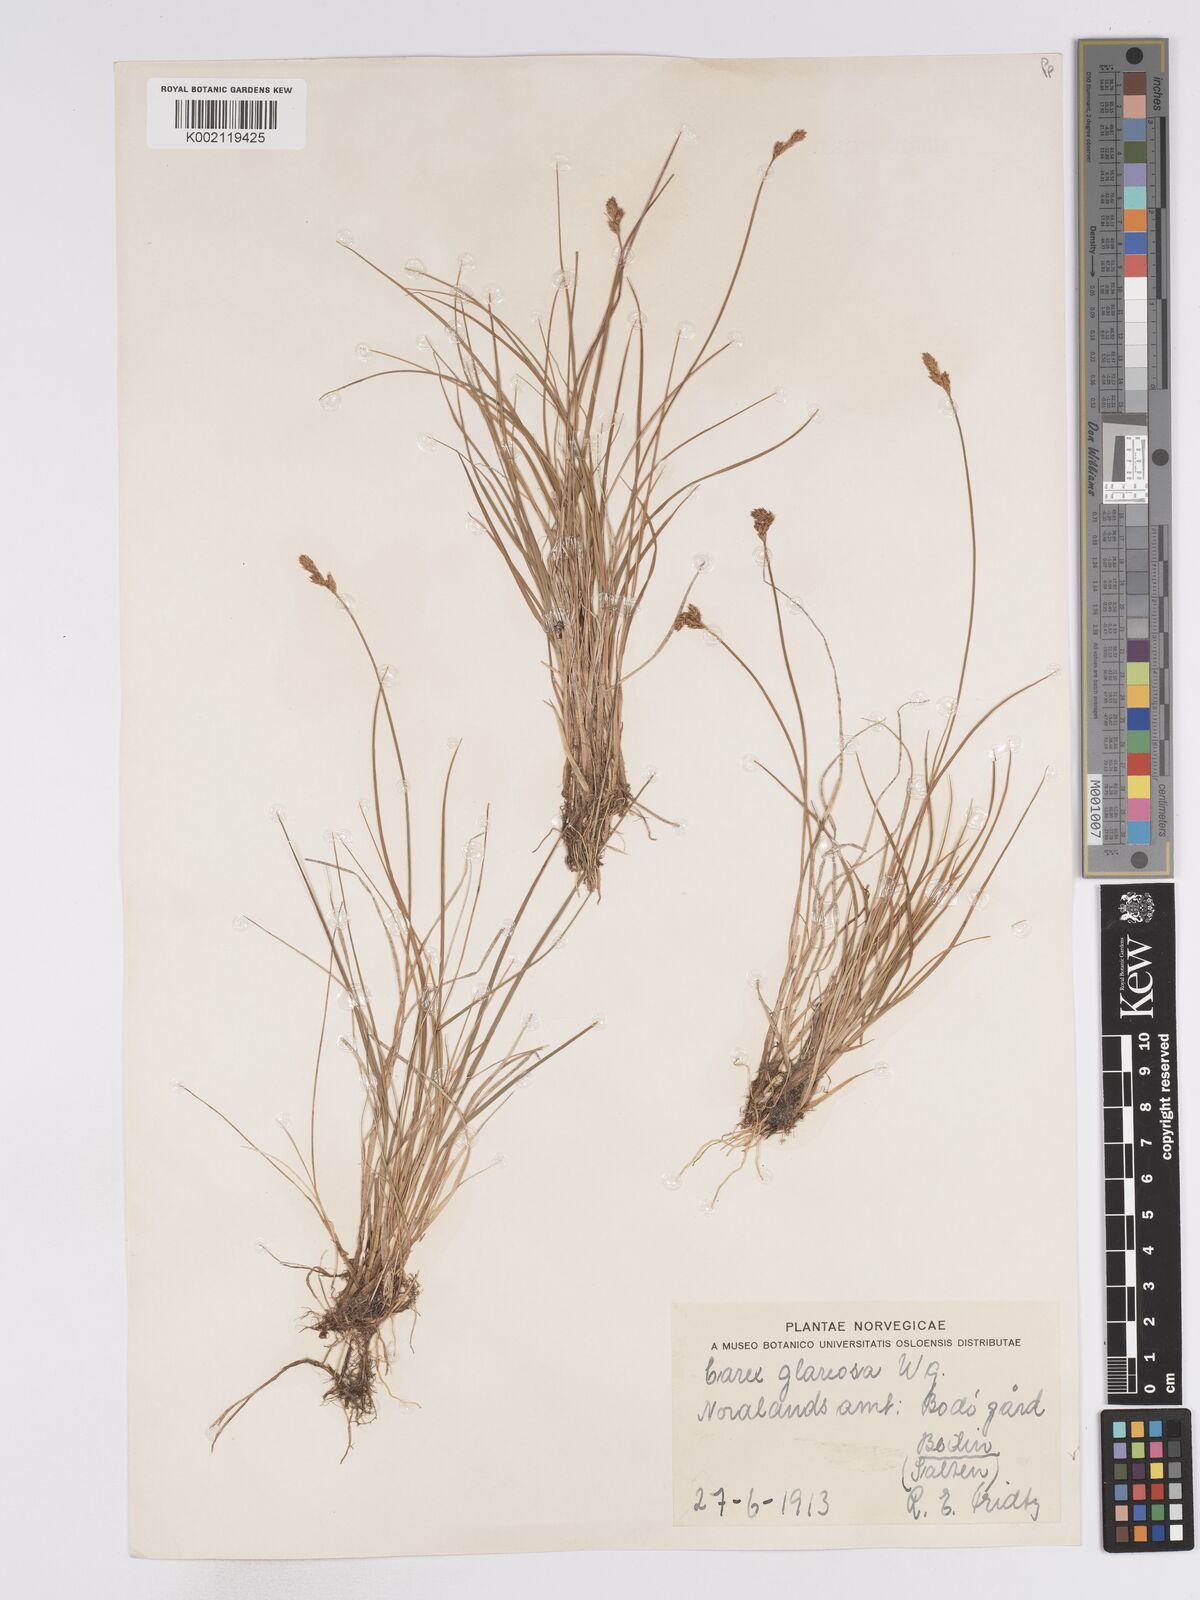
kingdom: Plantae
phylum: Tracheophyta
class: Liliopsida
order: Poales
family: Cyperaceae
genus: Carex
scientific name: Carex glareosa
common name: Clustered sedge
